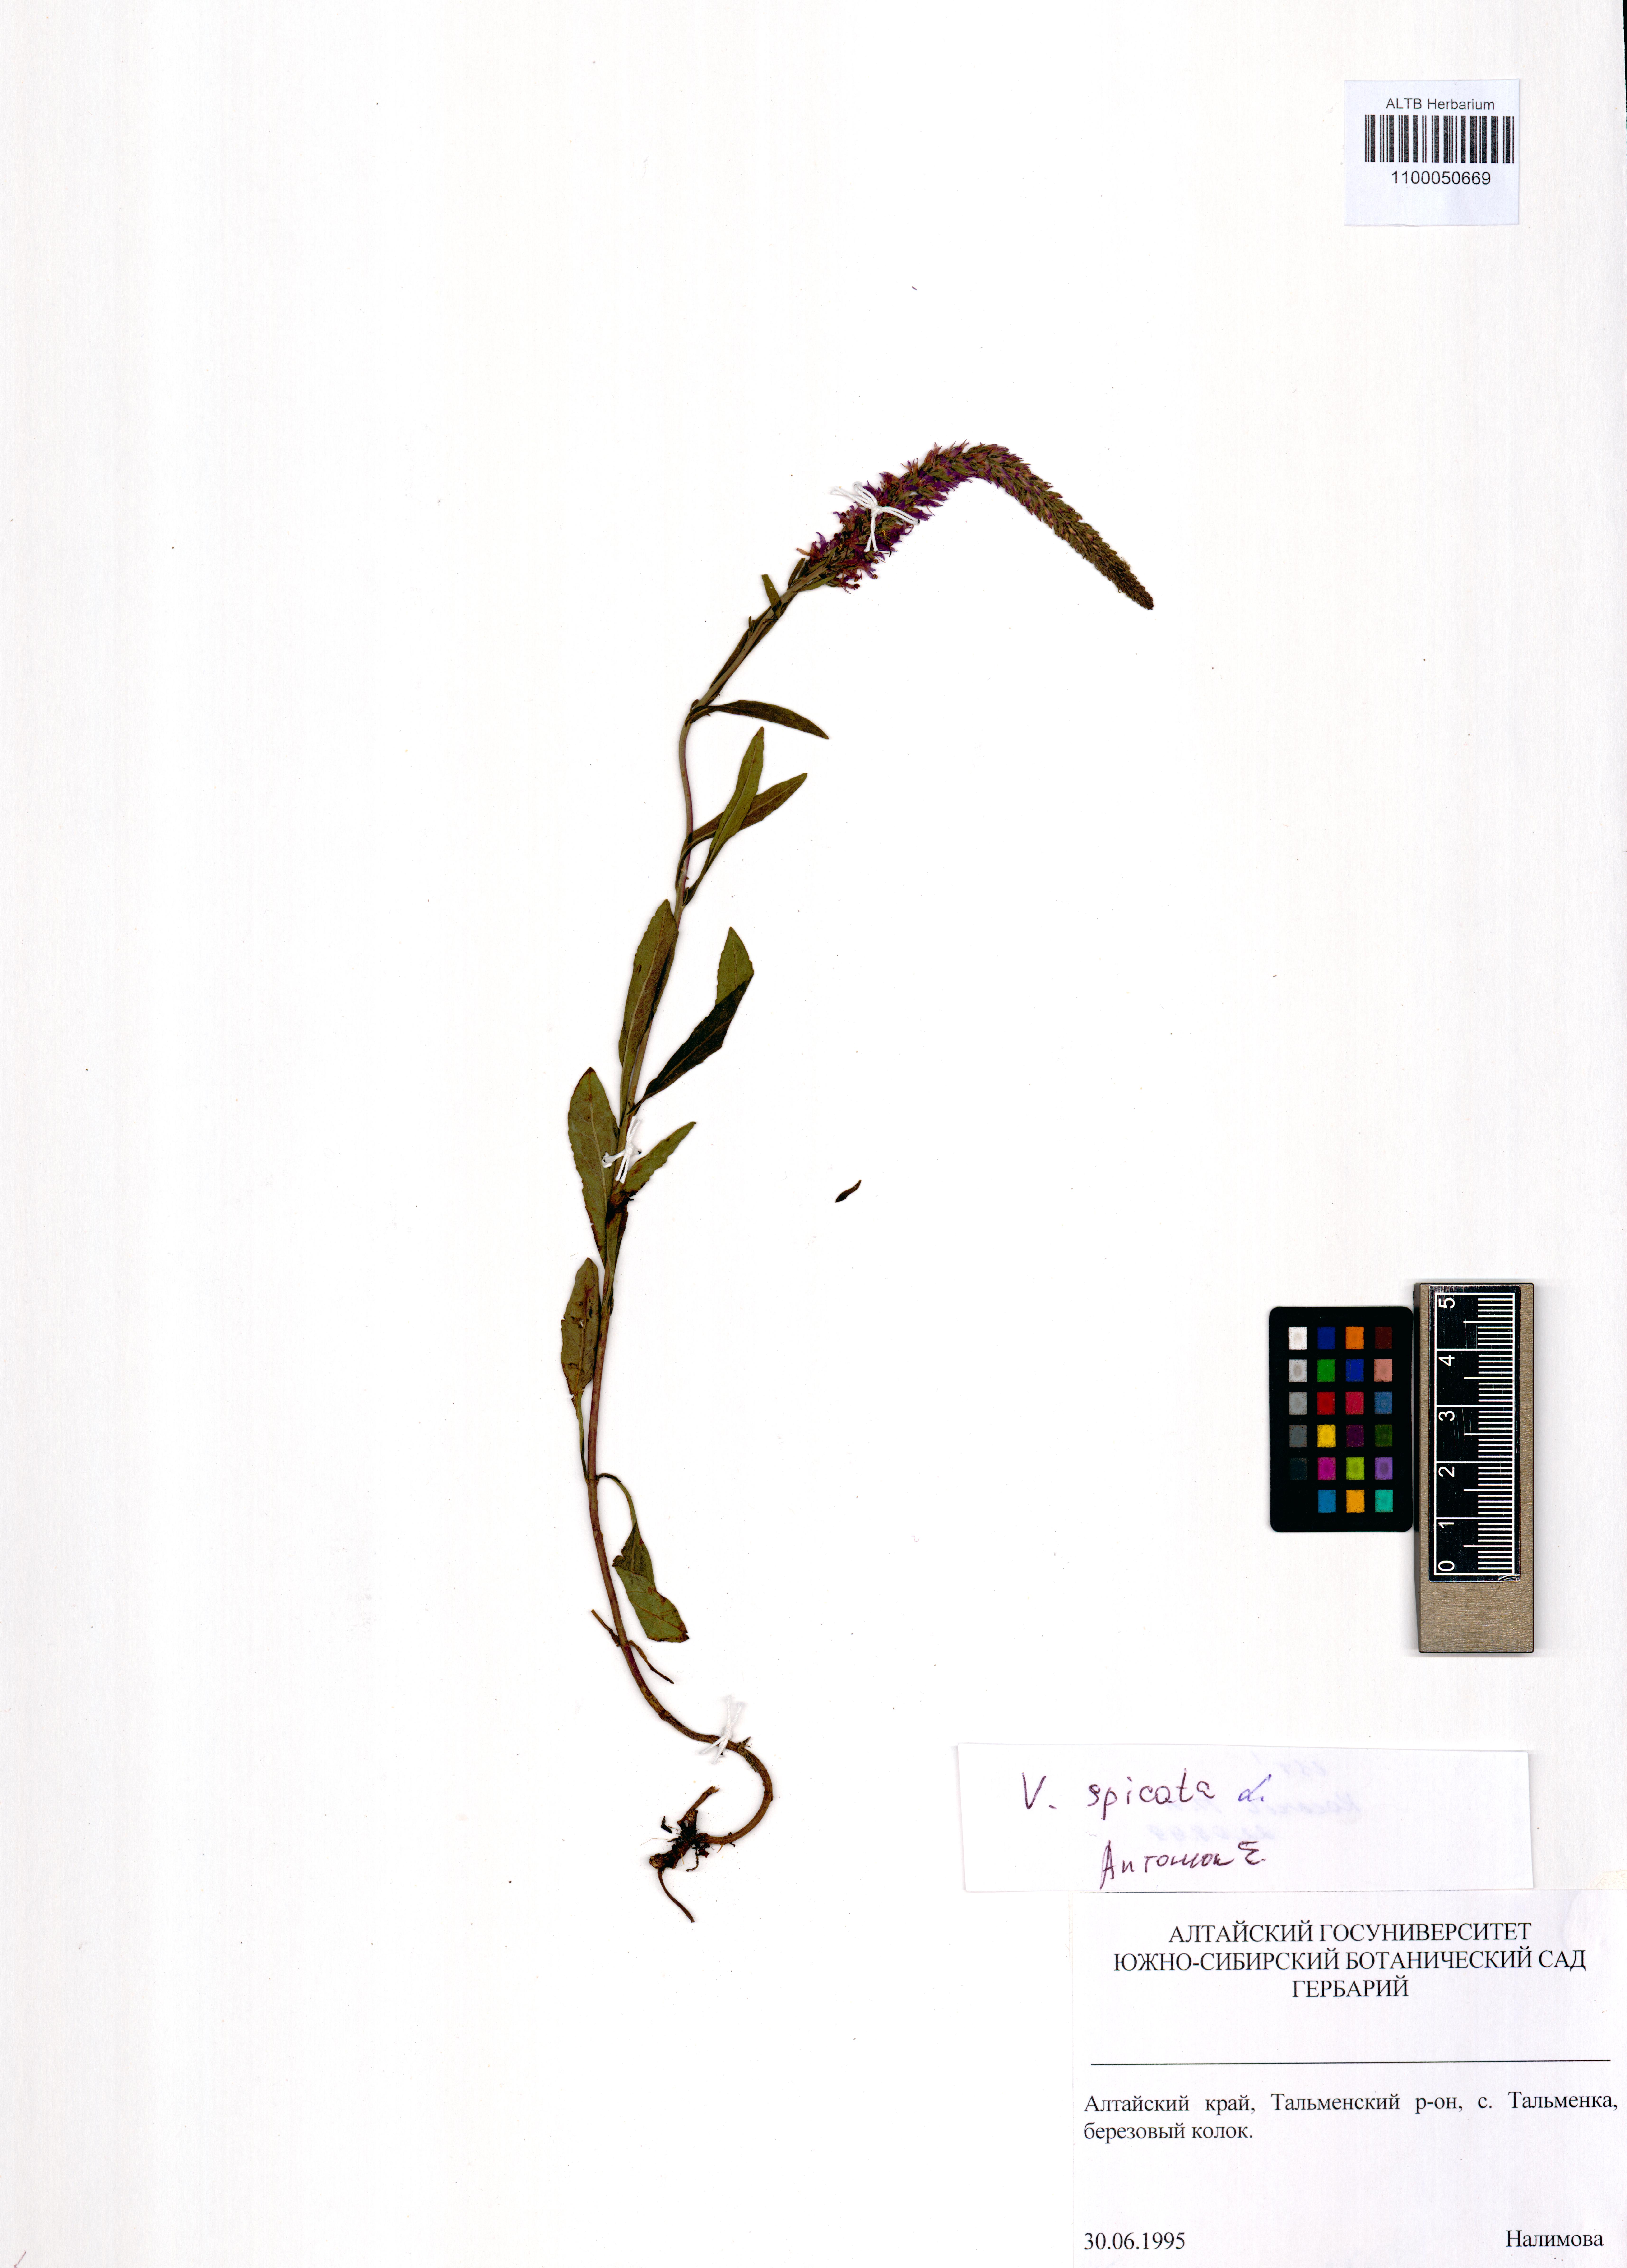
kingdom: Plantae
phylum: Tracheophyta
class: Magnoliopsida
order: Lamiales
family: Plantaginaceae
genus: Veronica
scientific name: Veronica spicata
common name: Spiked speedwell
